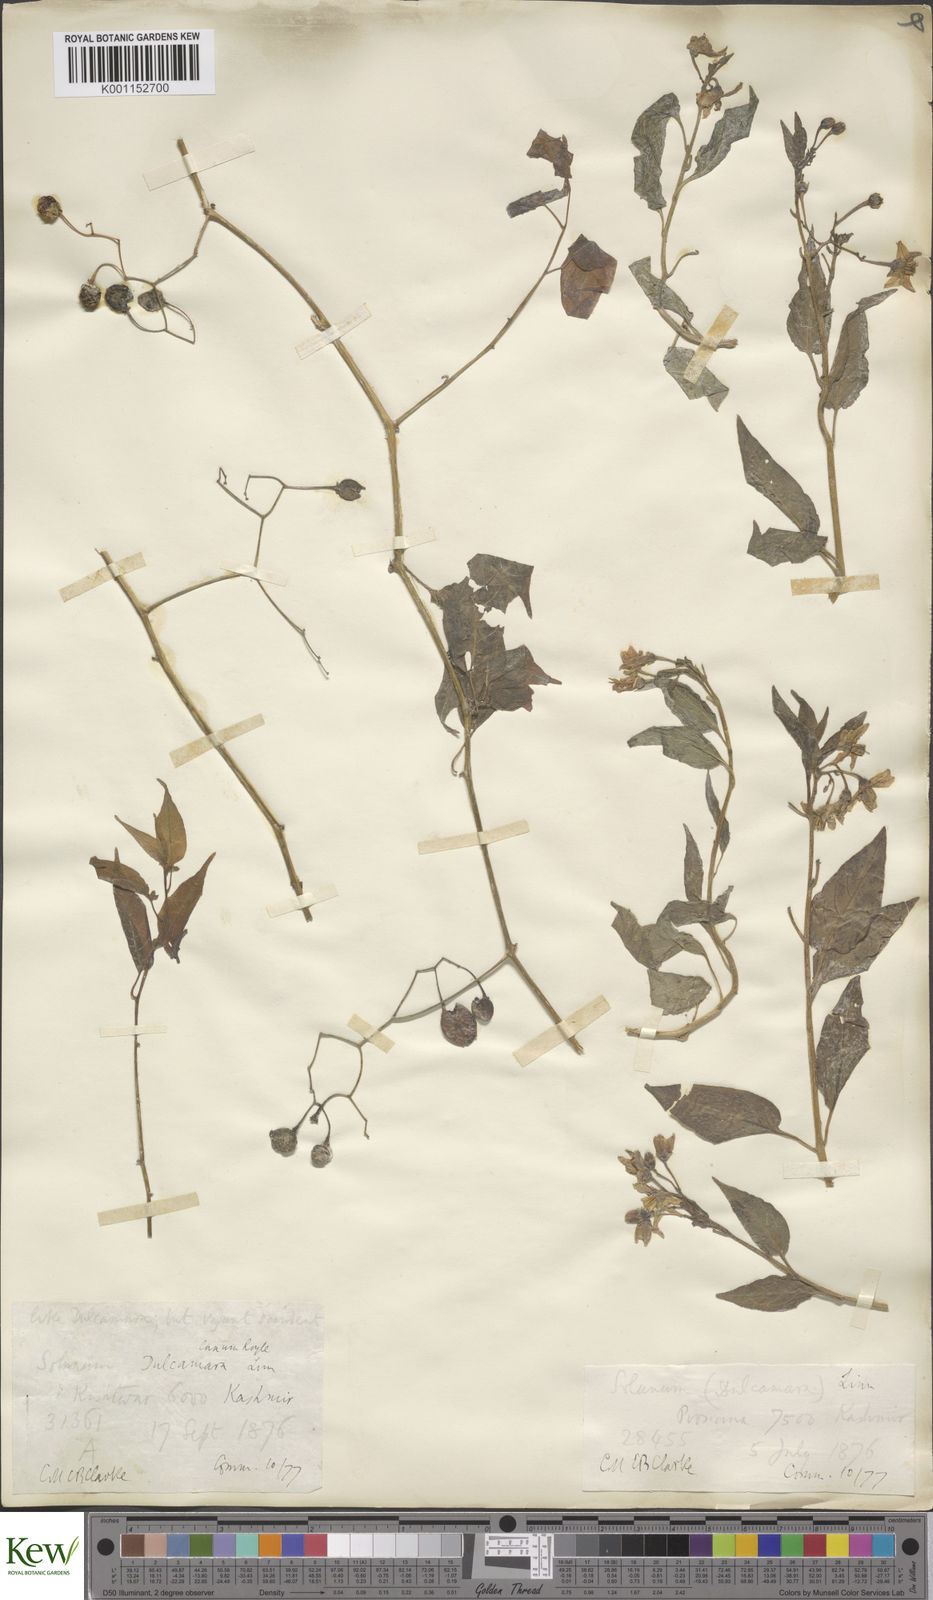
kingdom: Plantae
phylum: Tracheophyta
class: Magnoliopsida
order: Solanales
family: Solanaceae
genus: Solanum
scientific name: Solanum dulcamara
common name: Climbing nightshade
